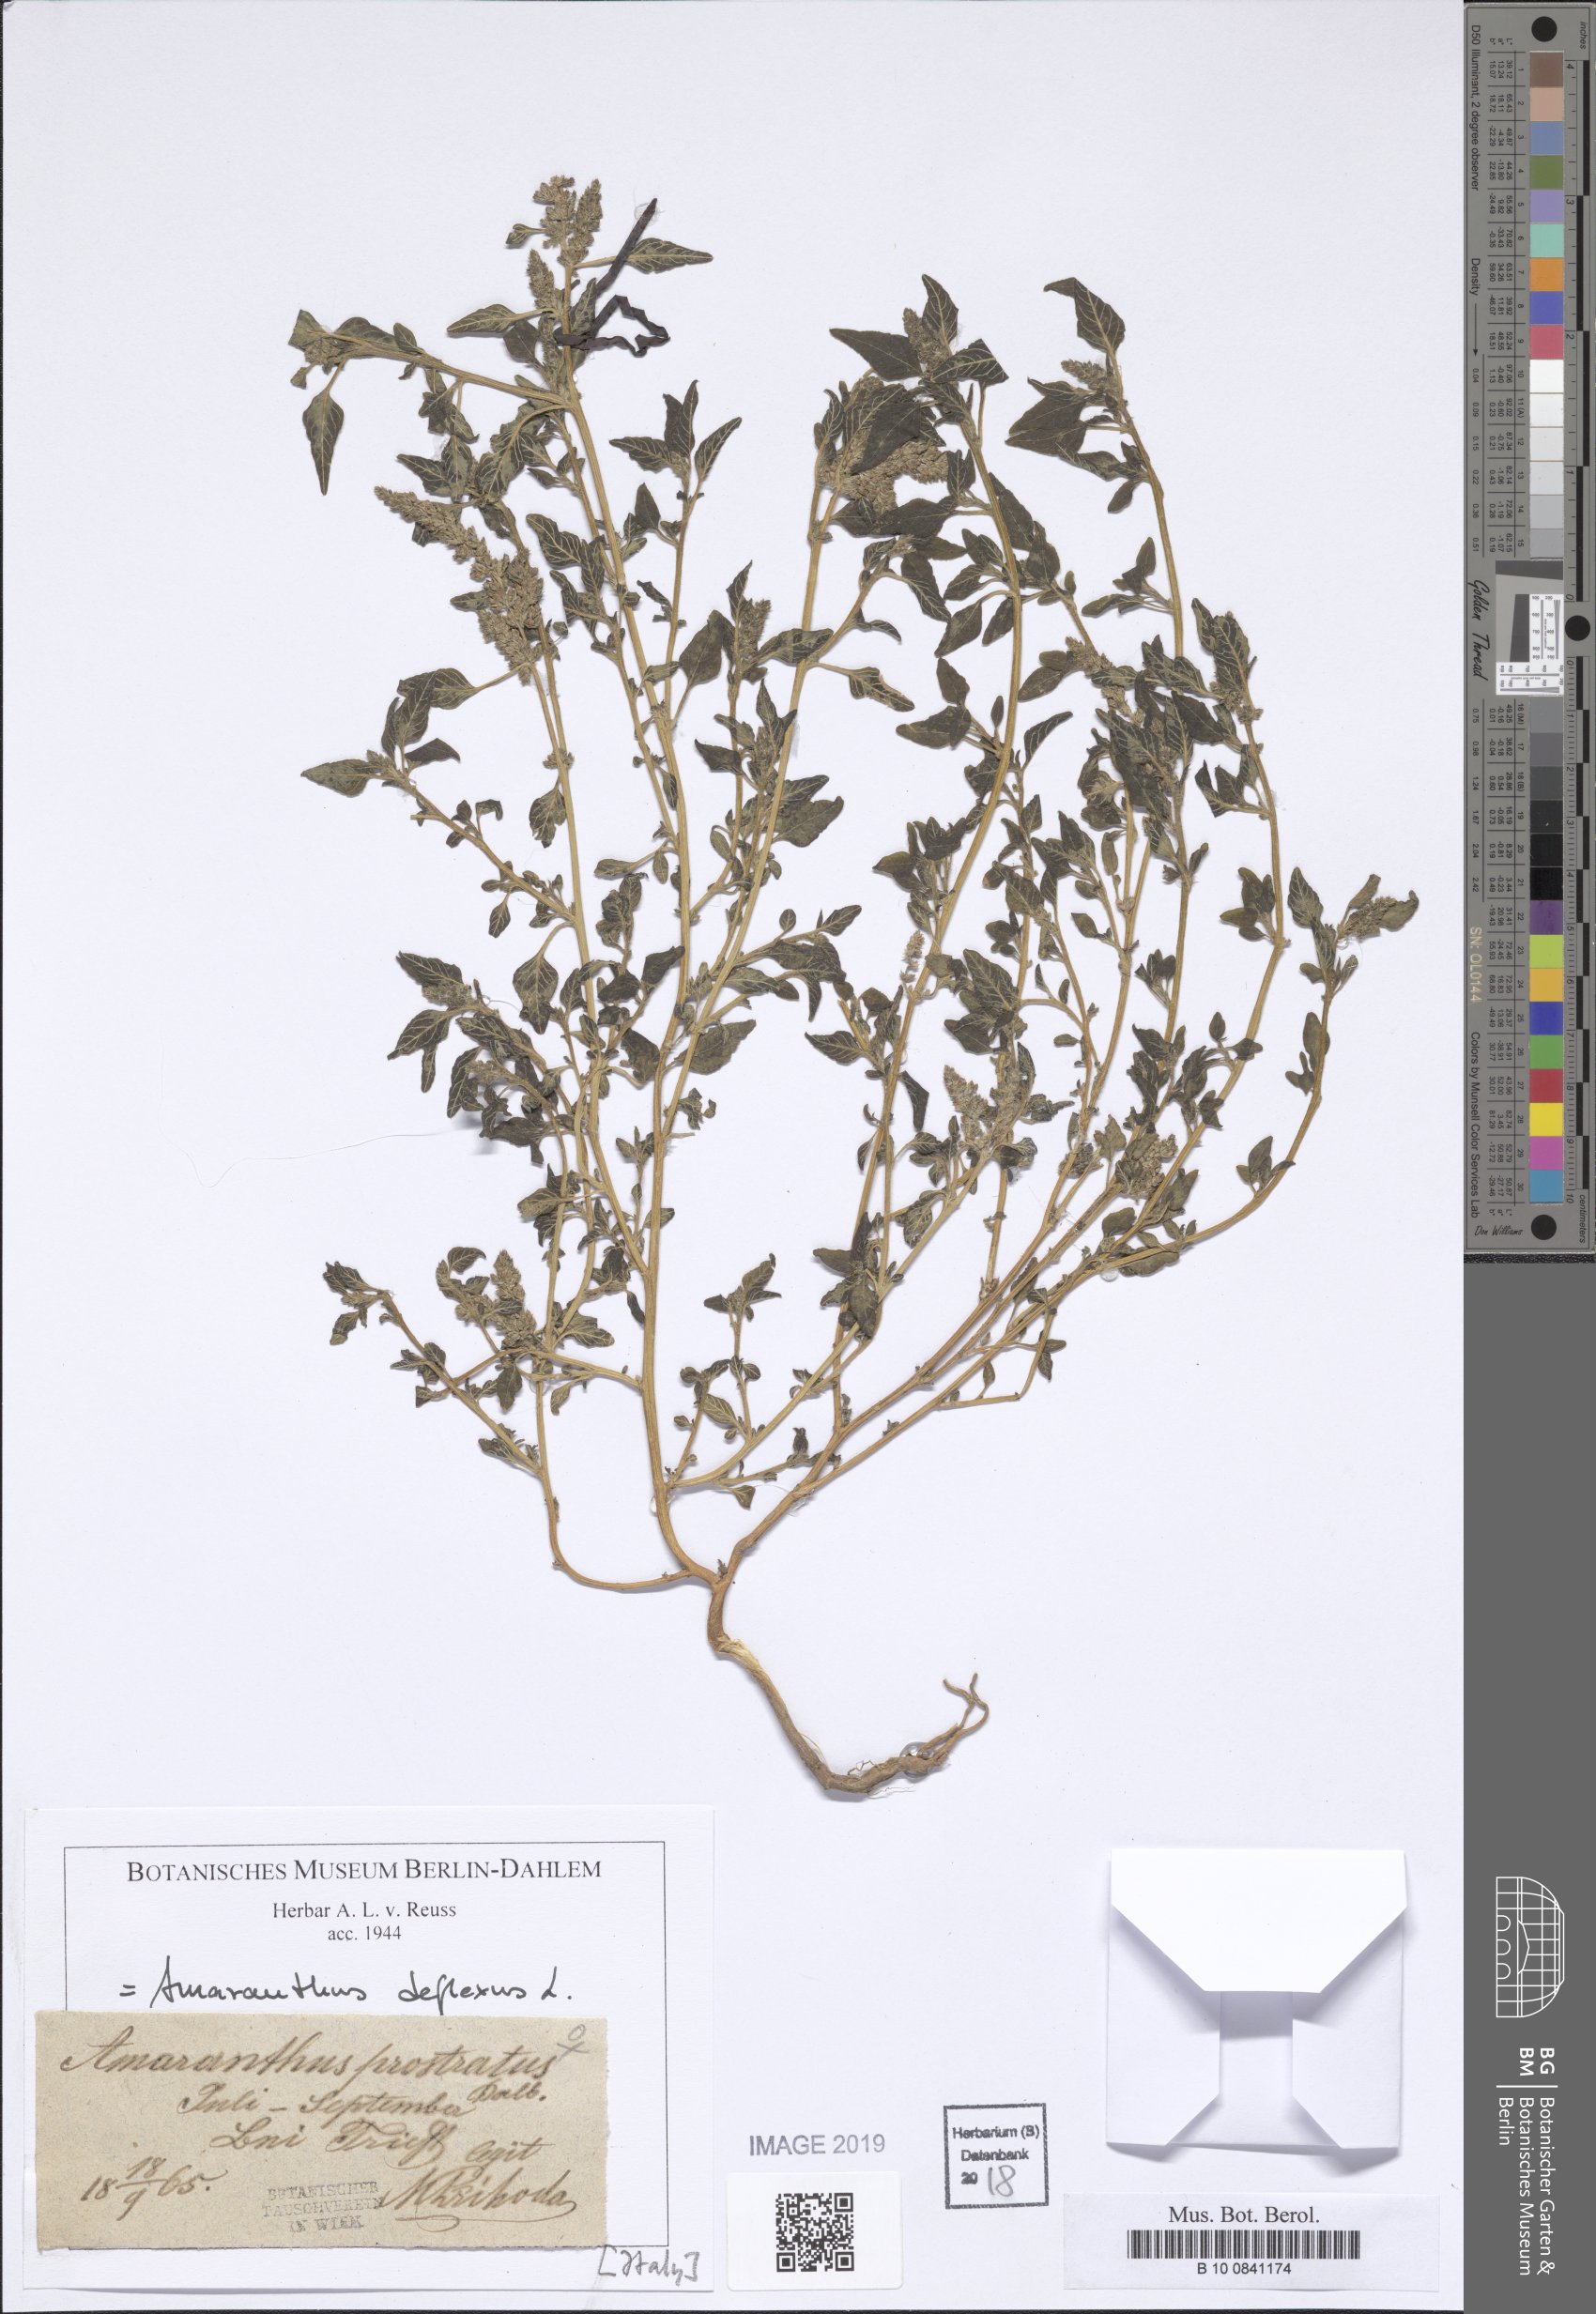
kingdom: Plantae
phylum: Tracheophyta
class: Magnoliopsida
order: Caryophyllales
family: Amaranthaceae
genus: Amaranthus
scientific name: Amaranthus deflexus
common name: Perennial pigweed
